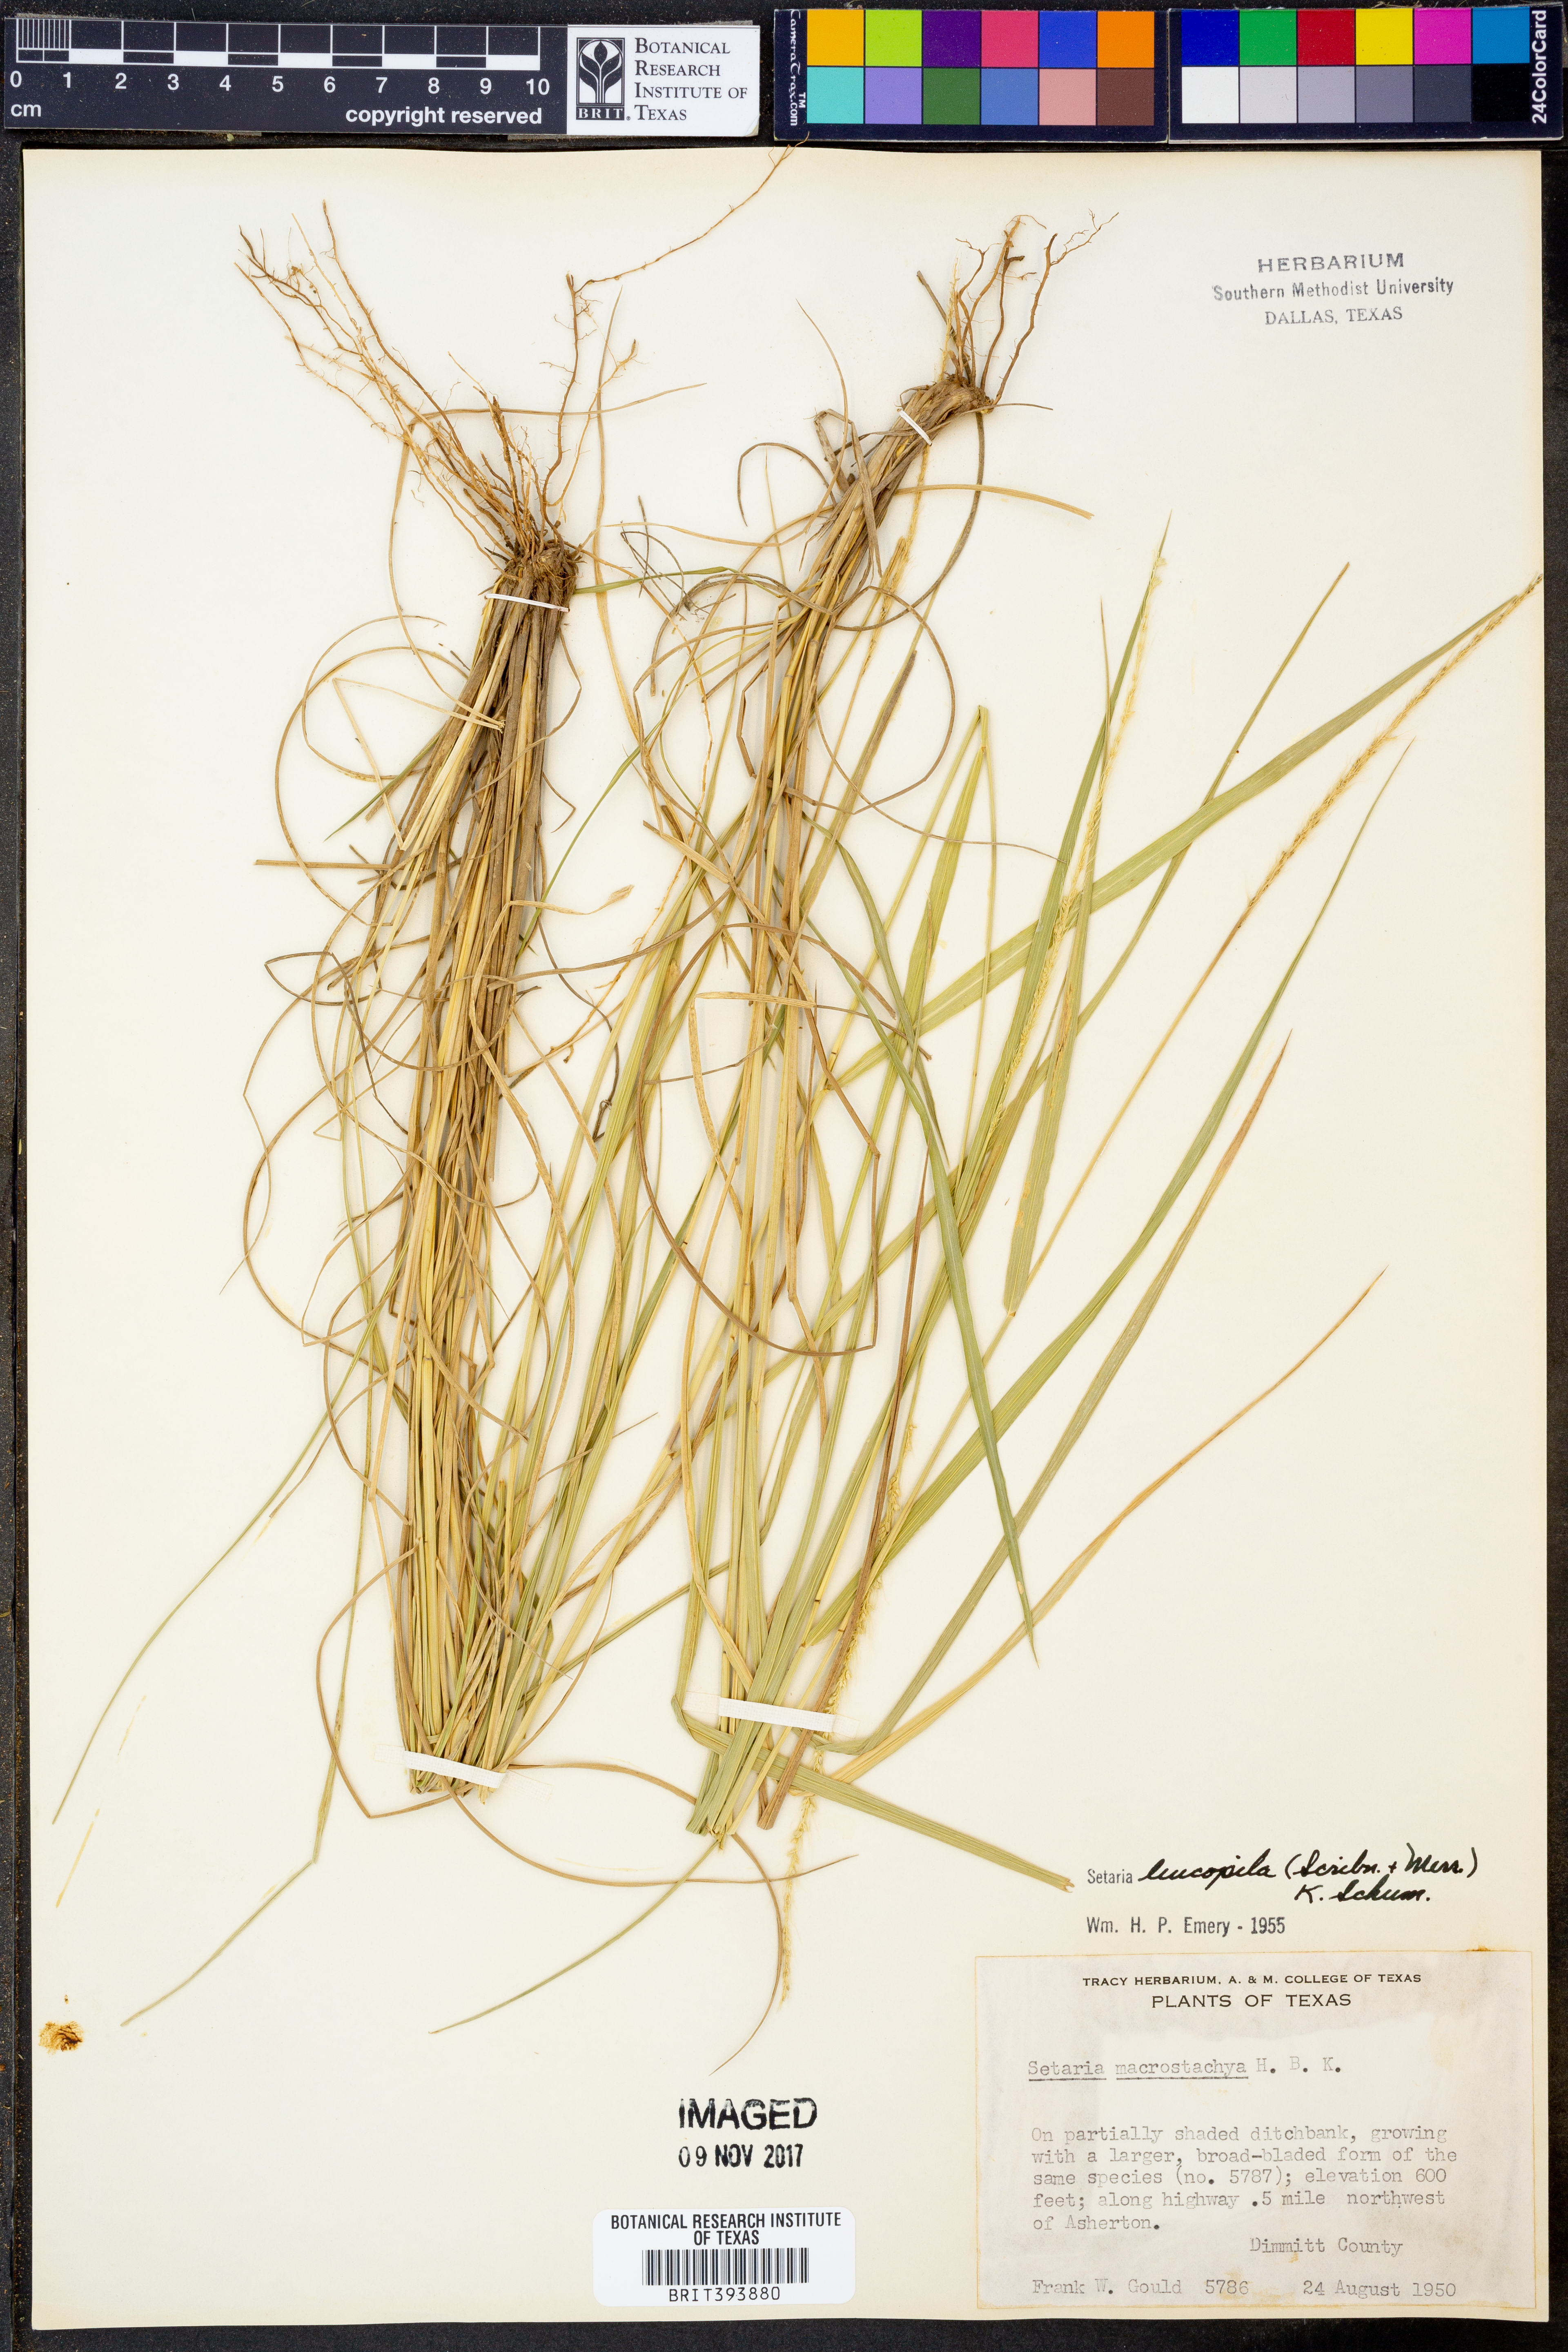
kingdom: Plantae
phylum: Tracheophyta
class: Liliopsida
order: Poales
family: Poaceae
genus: Setaria
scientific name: Setaria leucopila
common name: Plains bristle grass
